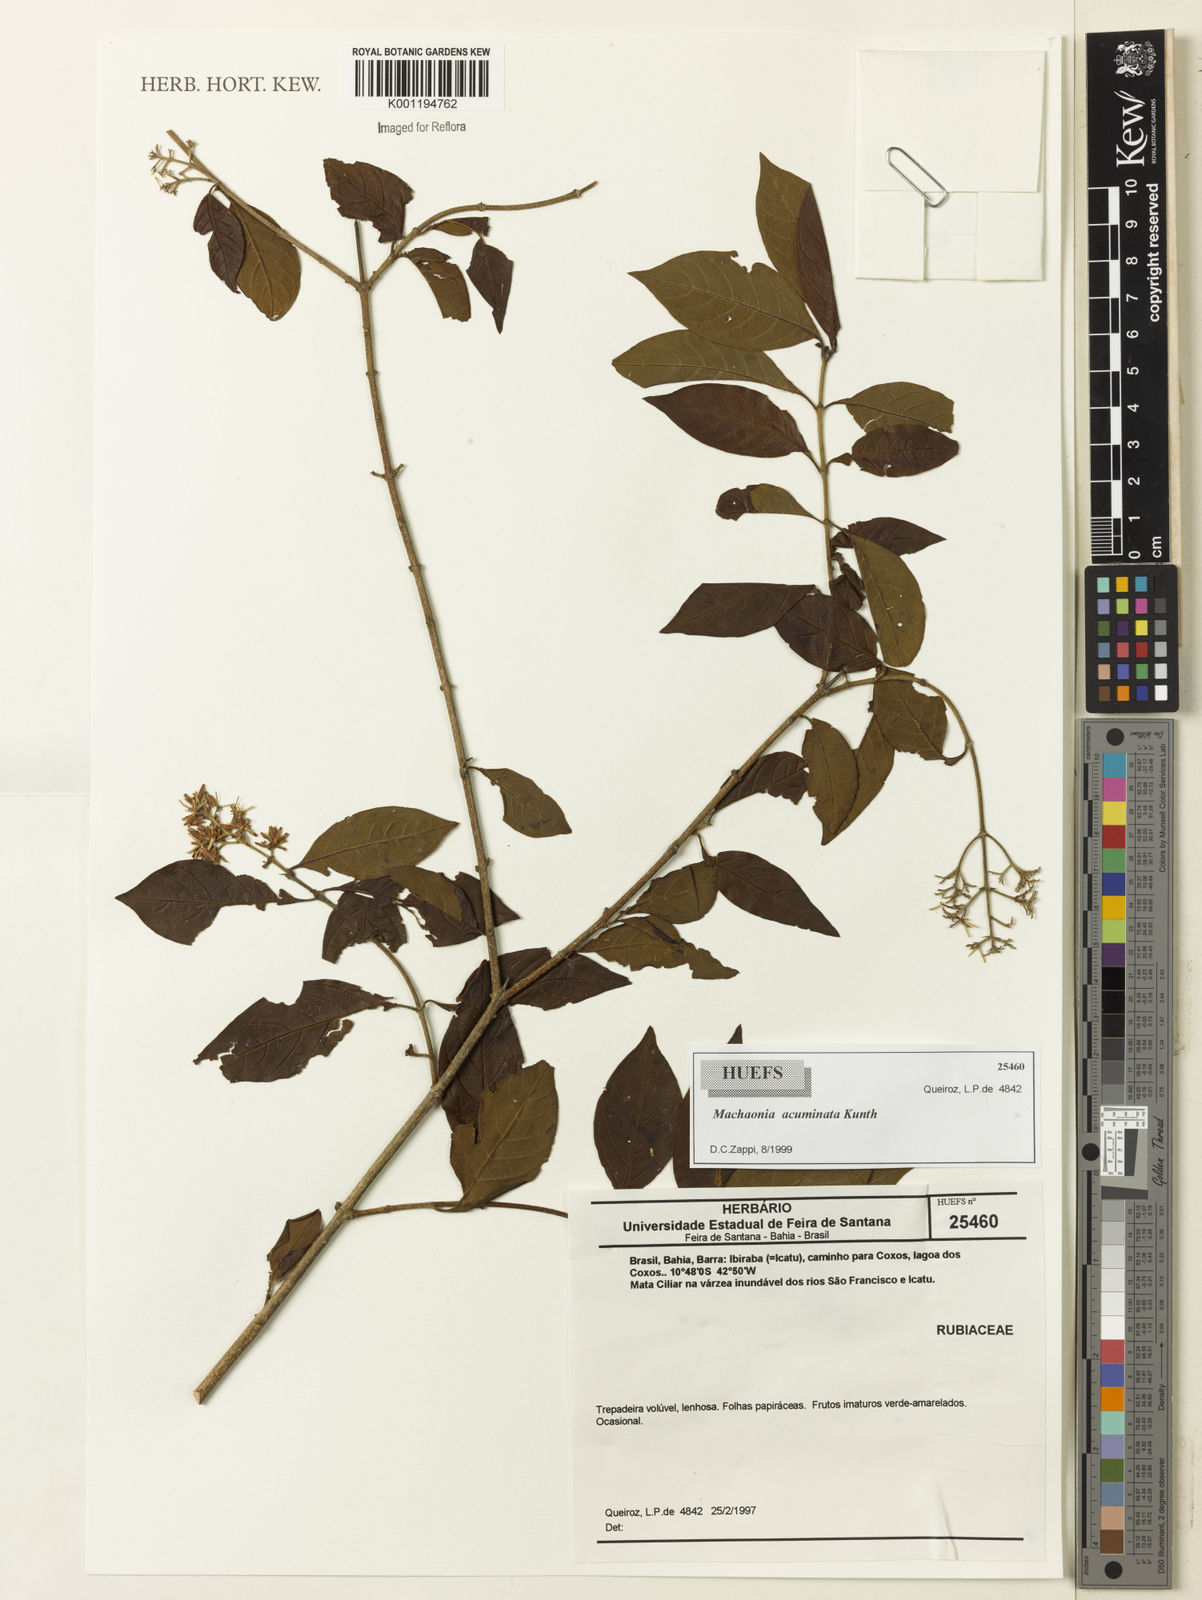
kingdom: Plantae
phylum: Tracheophyta
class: Magnoliopsida
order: Gentianales
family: Rubiaceae
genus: Machaonia
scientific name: Machaonia acuminata
